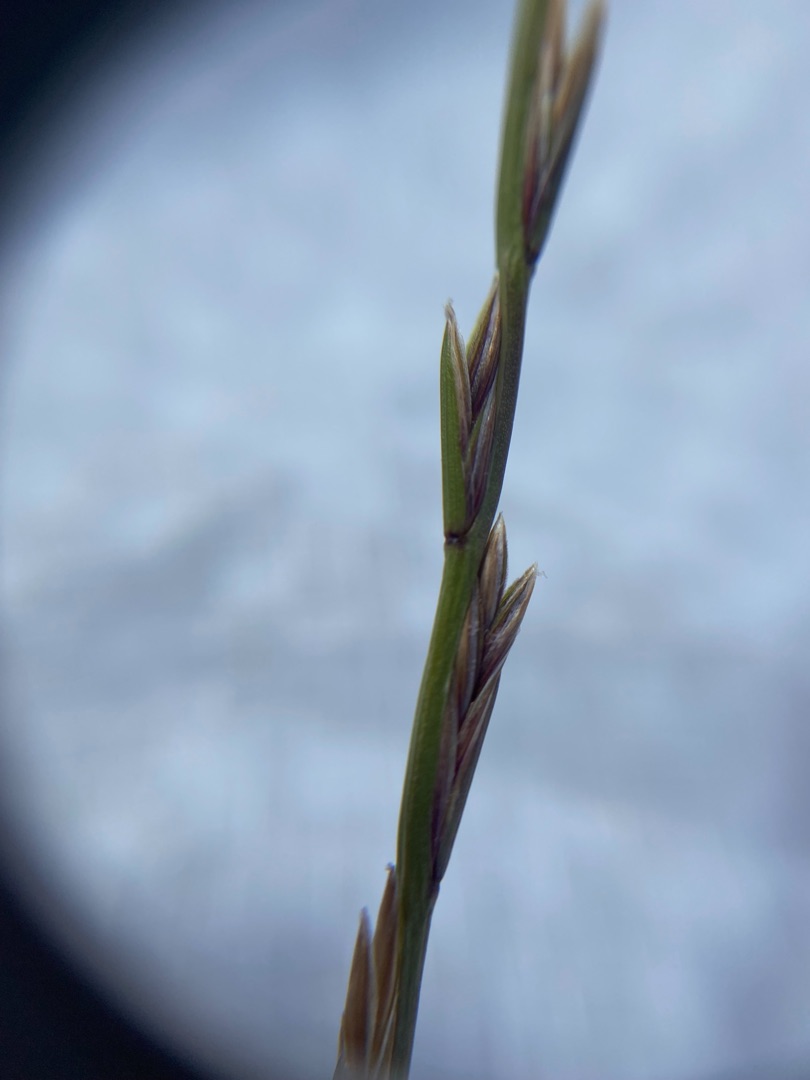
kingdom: Plantae
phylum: Tracheophyta
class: Liliopsida
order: Poales
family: Poaceae
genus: Lolium
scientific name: Lolium perenne
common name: Almindelig rajgræs
